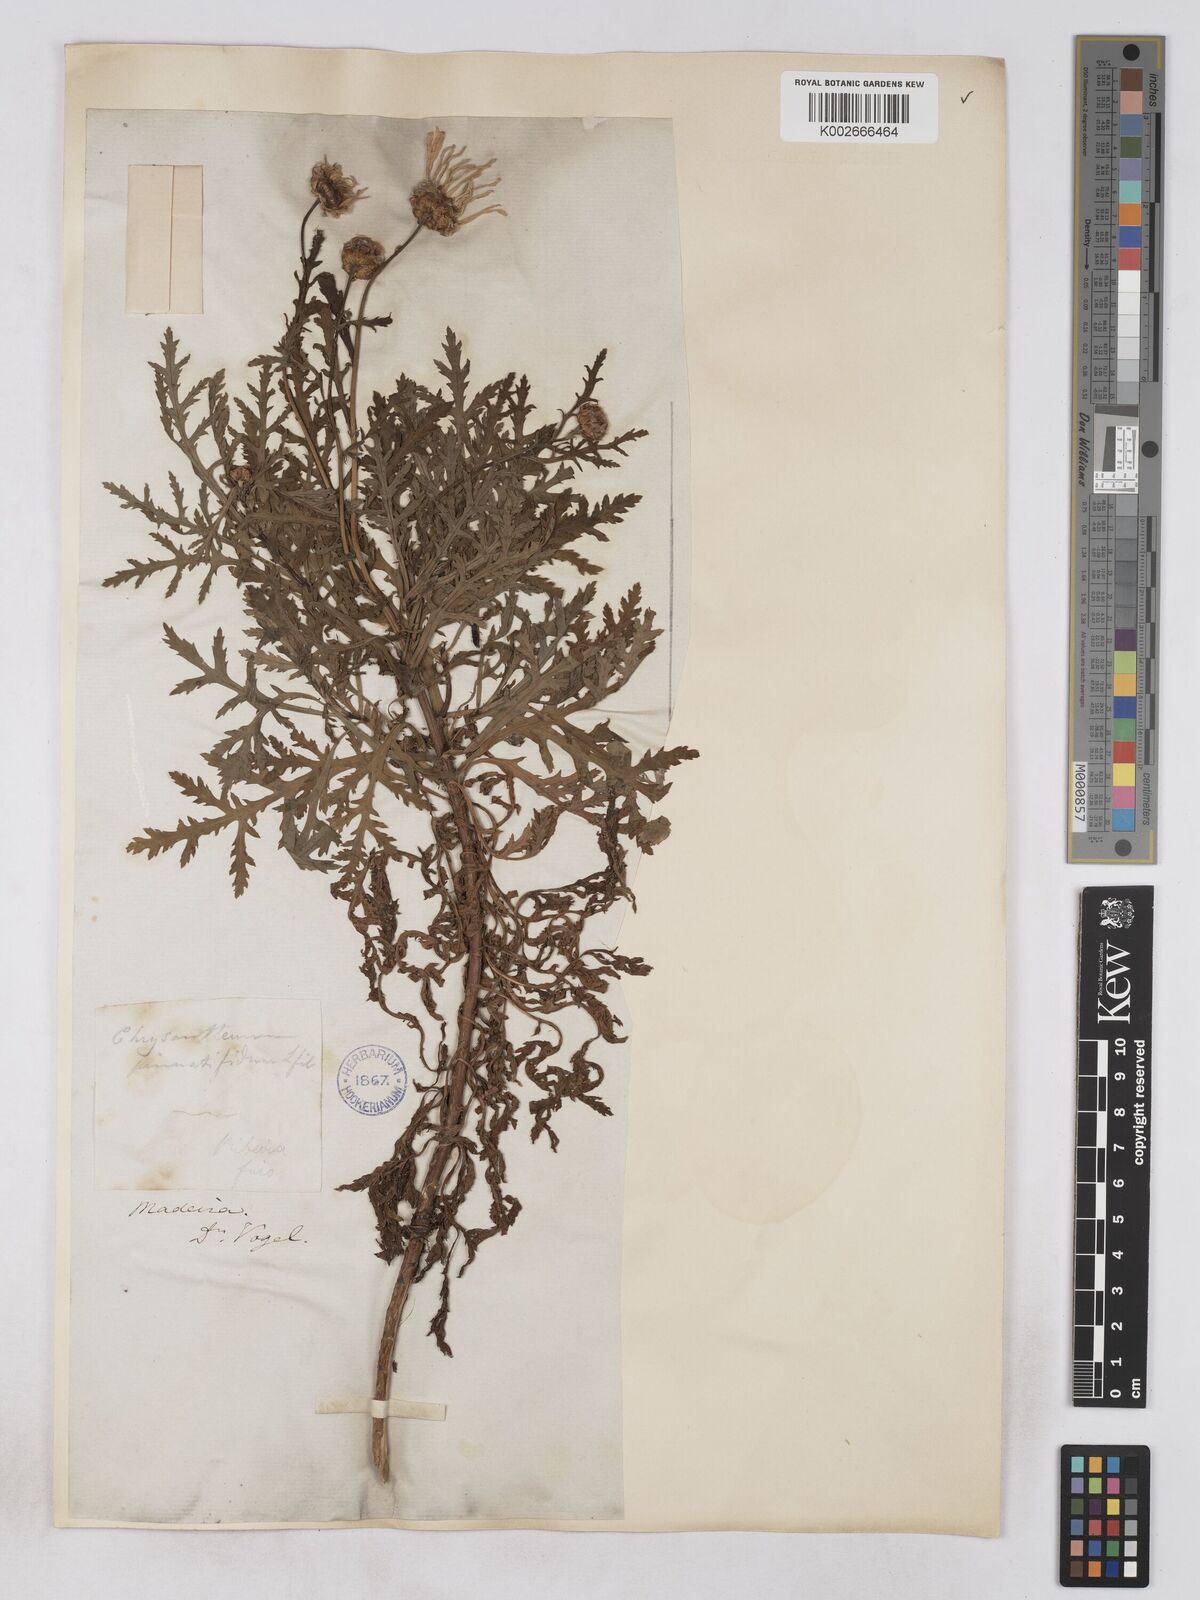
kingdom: Plantae
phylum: Tracheophyta
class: Magnoliopsida
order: Asterales
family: Asteraceae
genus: Argyranthemum
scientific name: Argyranthemum dissectum
